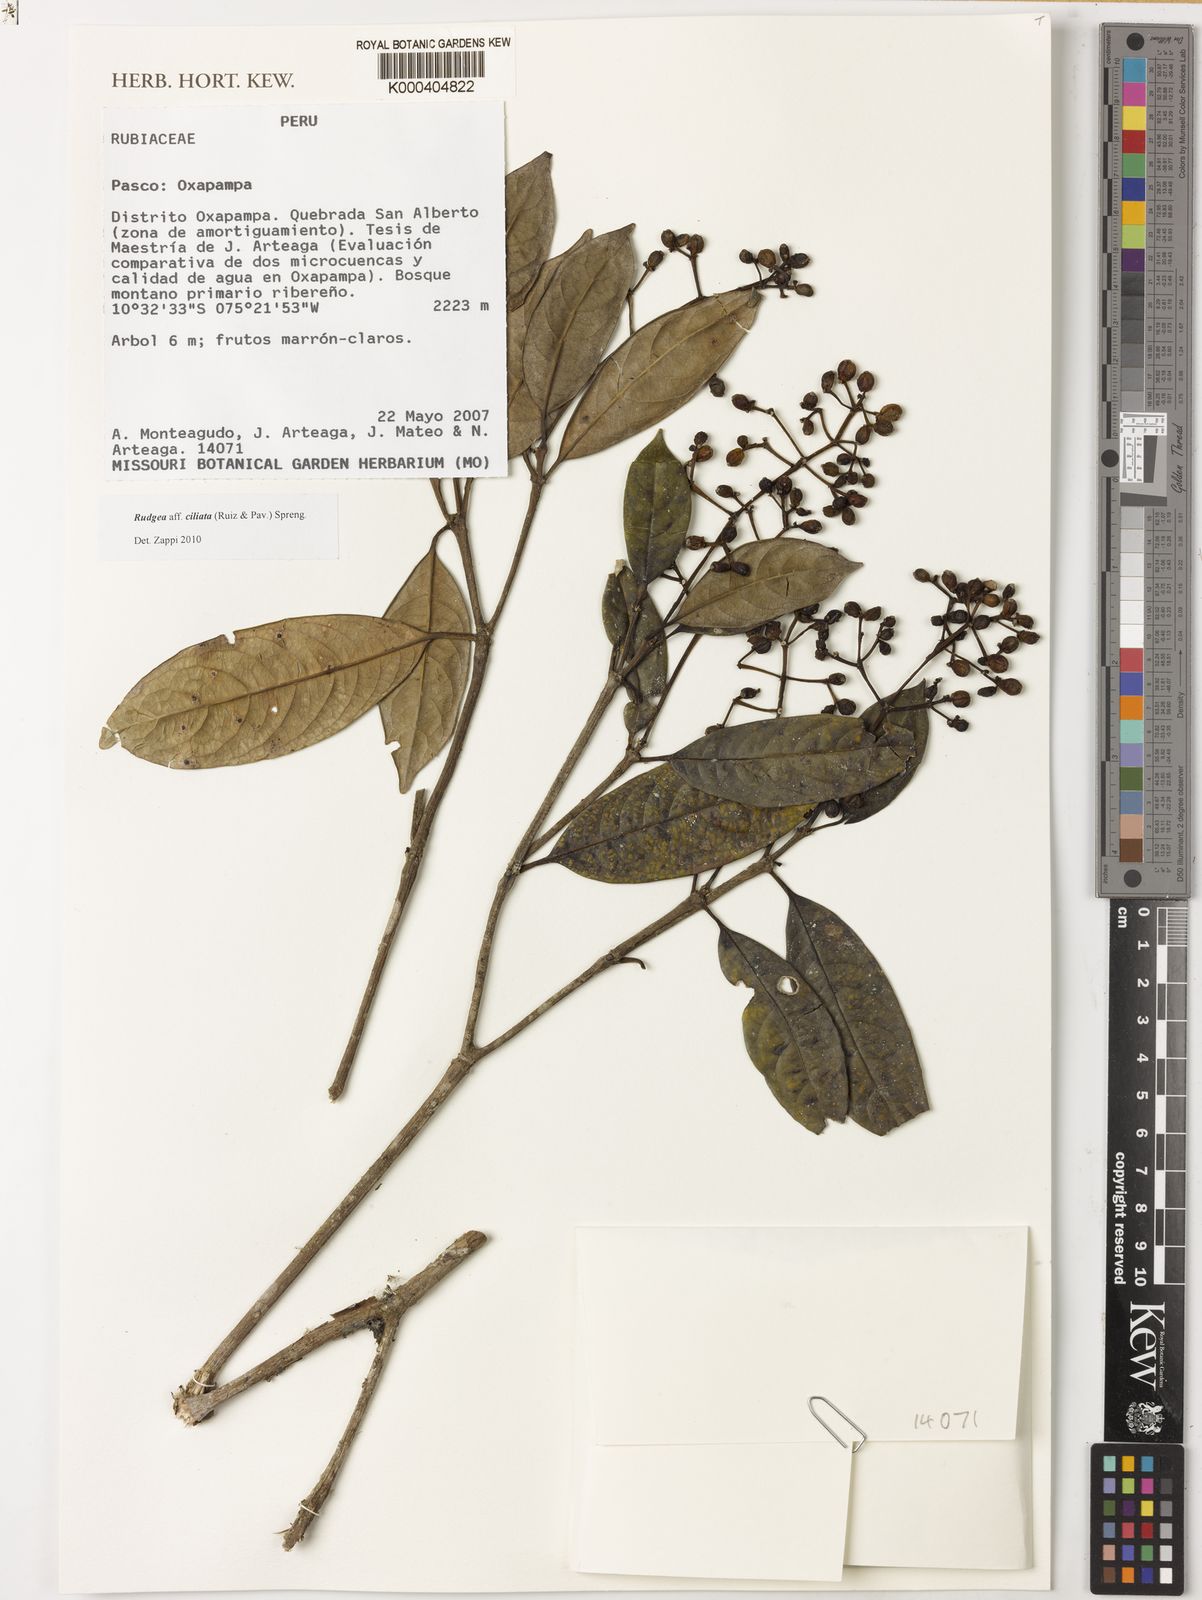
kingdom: Plantae
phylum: Tracheophyta
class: Magnoliopsida
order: Gentianales
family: Rubiaceae
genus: Rudgea
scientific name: Rudgea ciliata
